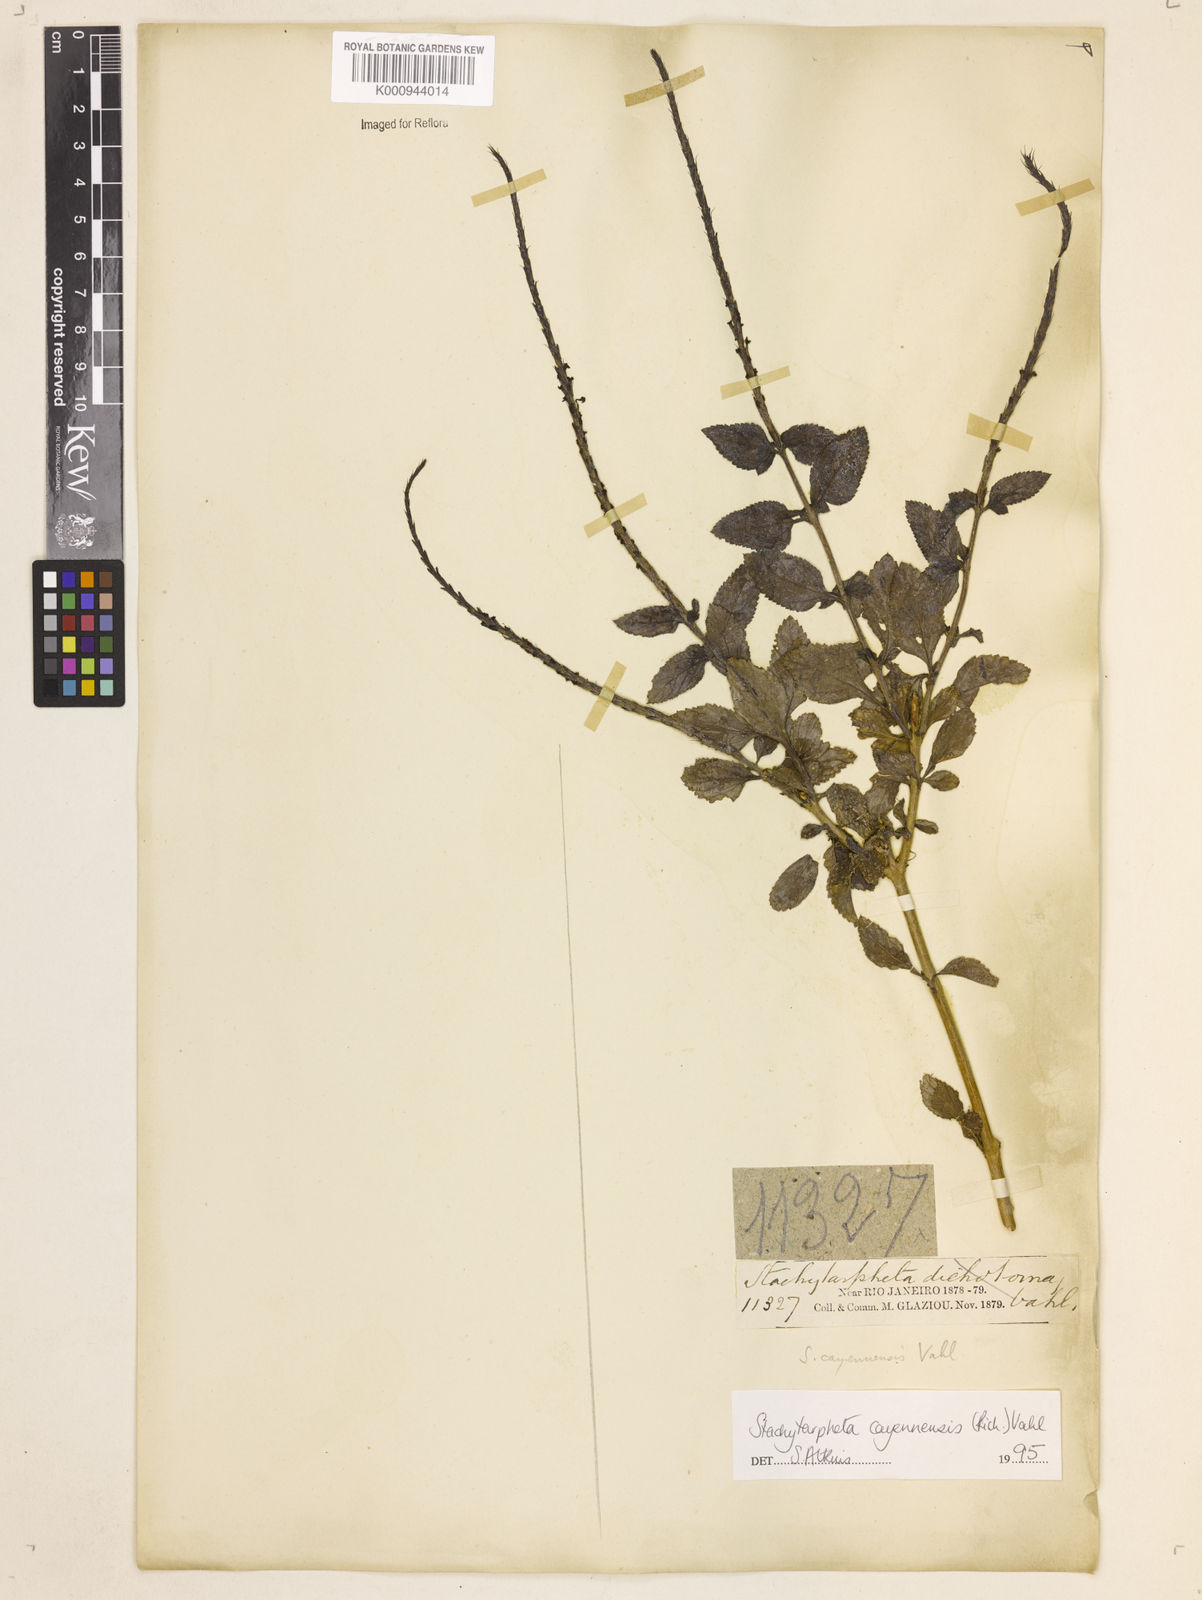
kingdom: Plantae
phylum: Tracheophyta
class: Magnoliopsida
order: Lamiales
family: Verbenaceae
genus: Aloysia
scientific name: Aloysia
